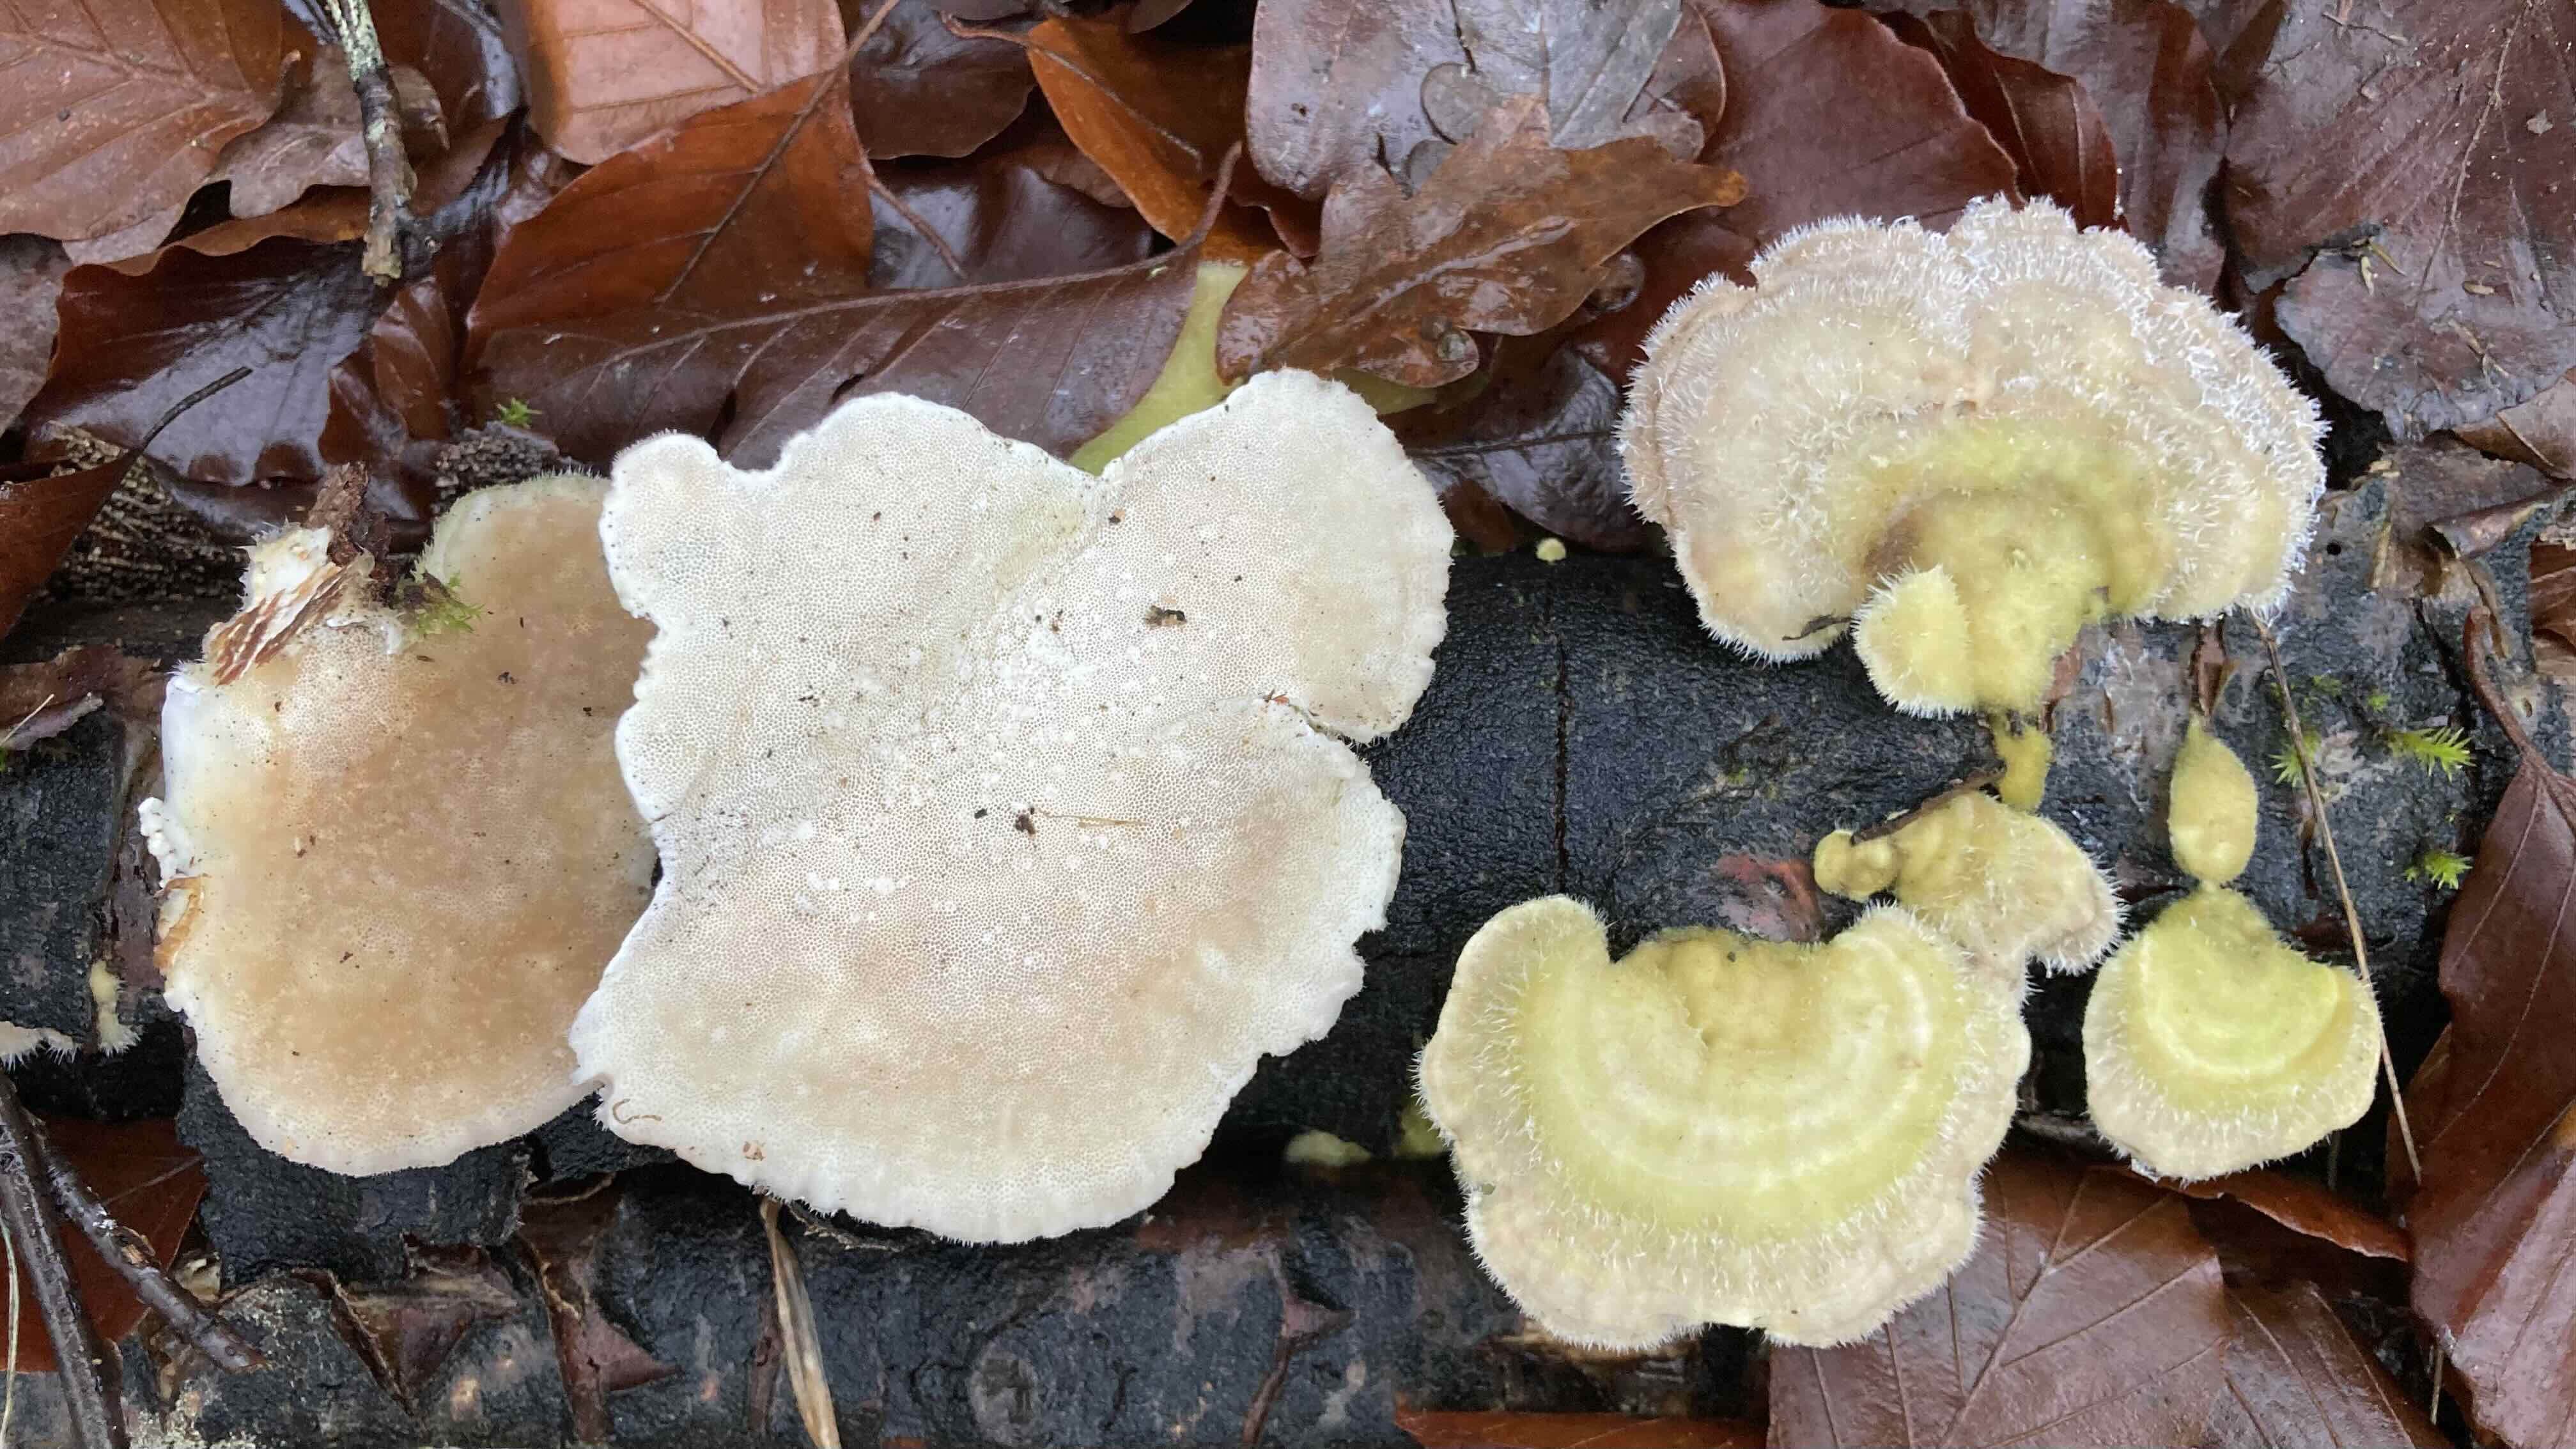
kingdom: Fungi
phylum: Basidiomycota
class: Agaricomycetes
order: Polyporales
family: Polyporaceae
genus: Trametes
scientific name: Trametes hirsuta
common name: håret læderporesvamp
